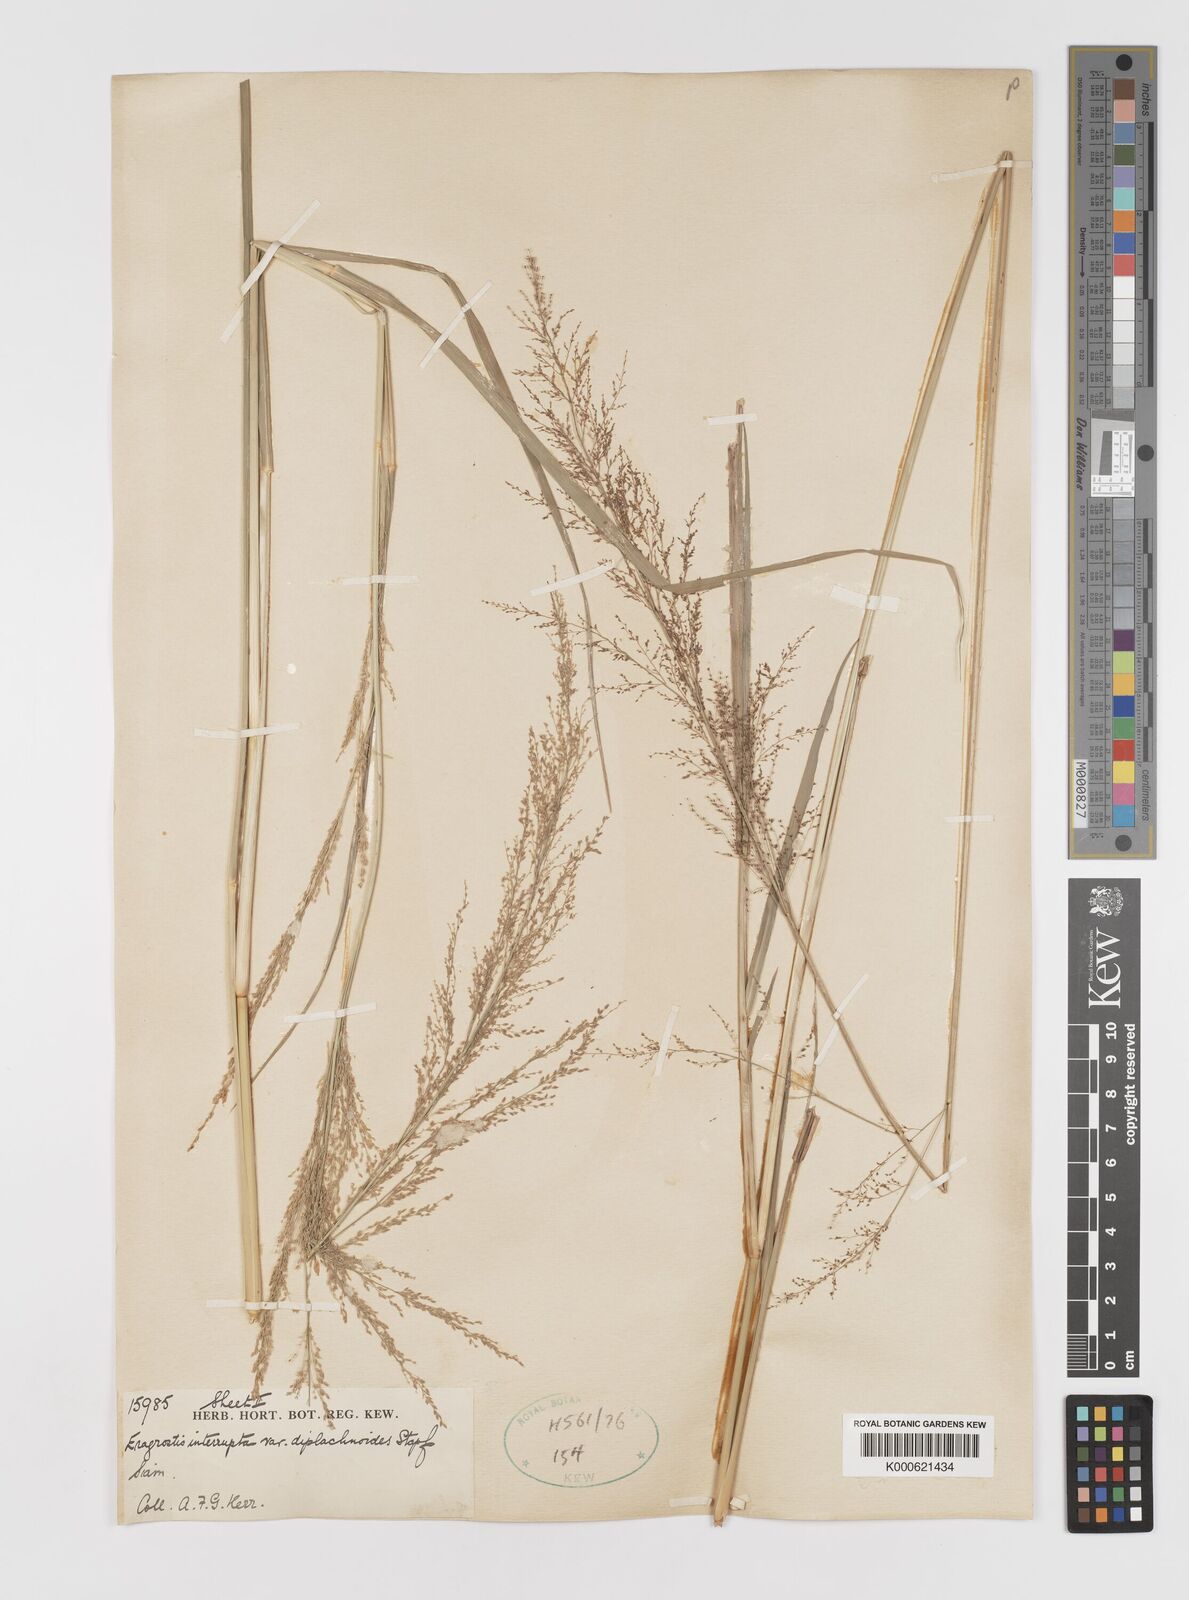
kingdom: Plantae
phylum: Tracheophyta
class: Liliopsida
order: Poales
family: Poaceae
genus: Eragrostis
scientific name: Eragrostis japonica
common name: Pond lovegrass
